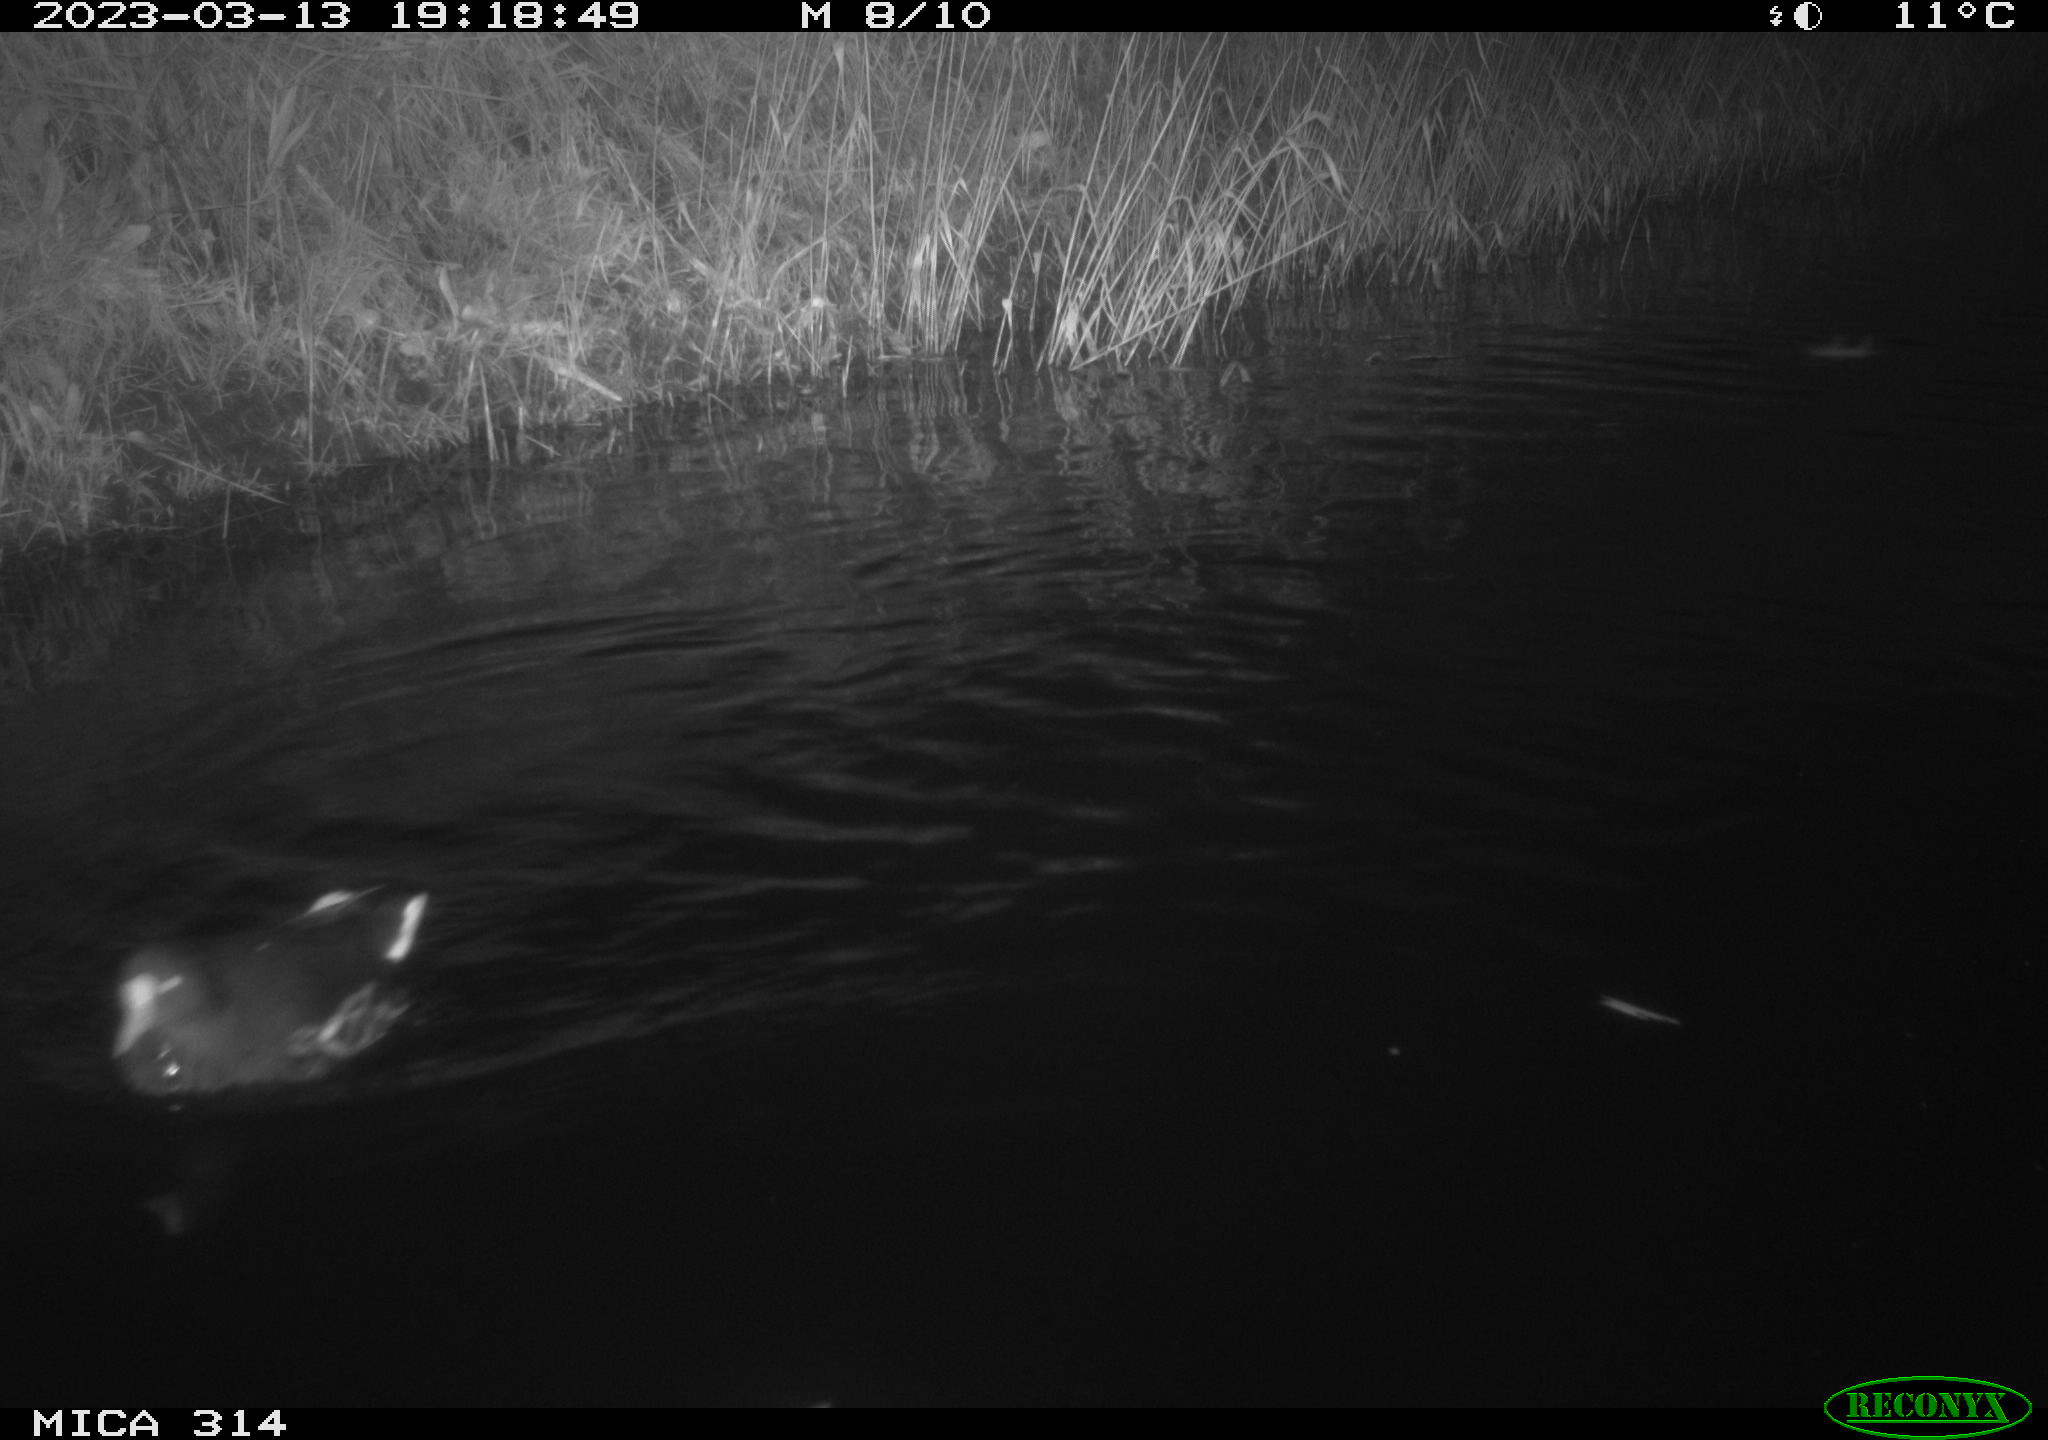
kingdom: Animalia
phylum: Chordata
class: Aves
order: Gruiformes
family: Rallidae
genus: Gallinula
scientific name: Gallinula chloropus
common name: Common moorhen
